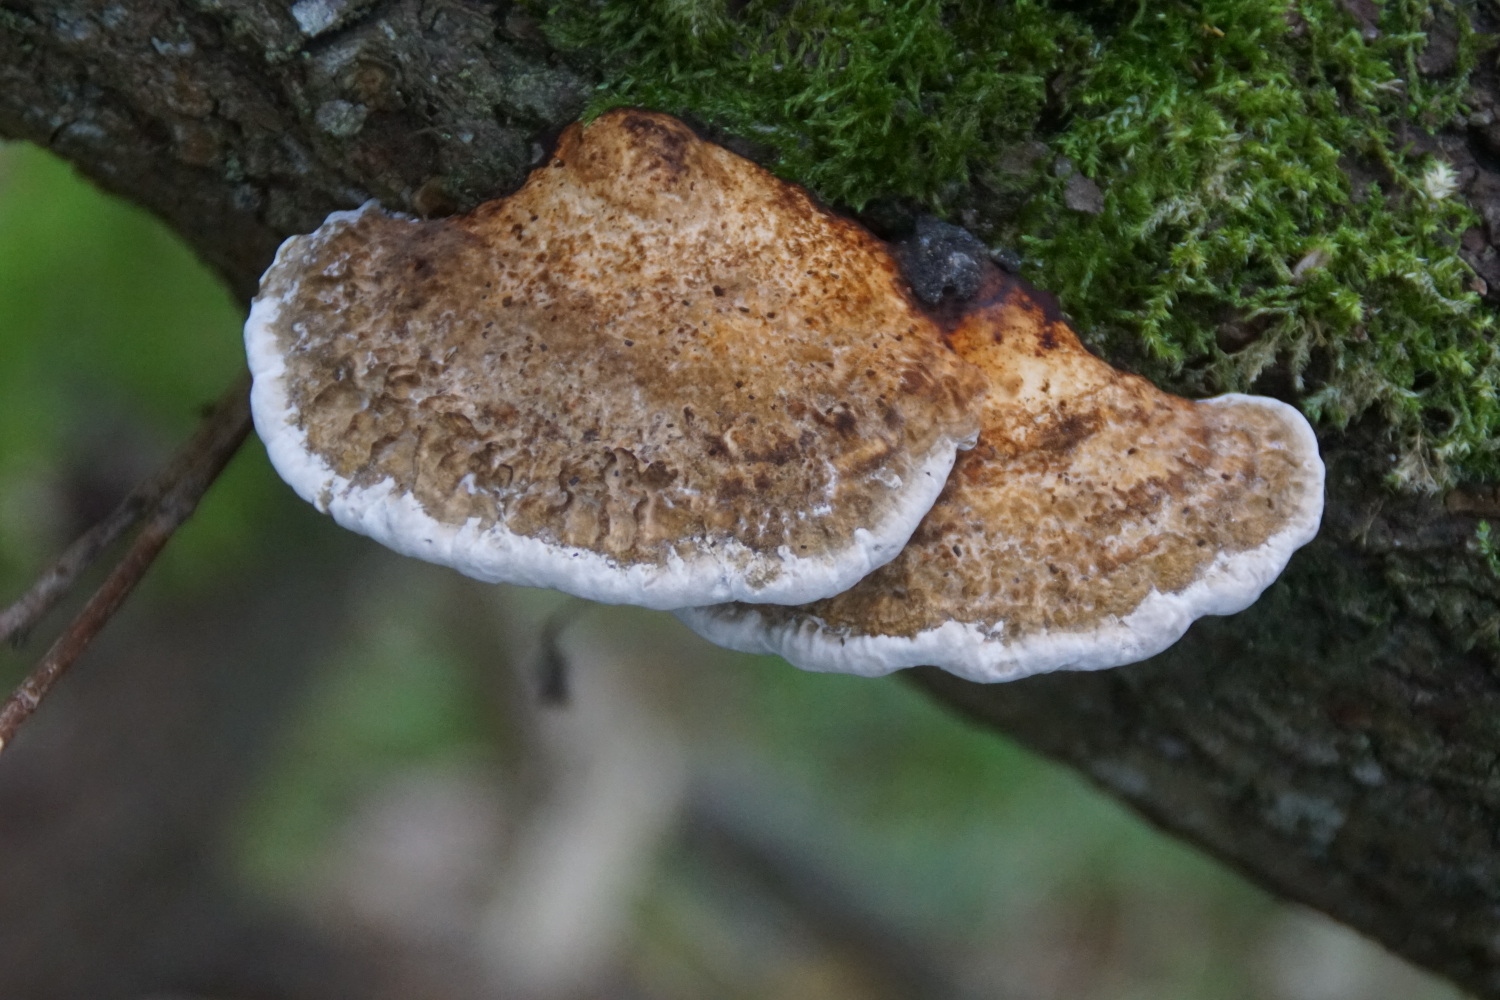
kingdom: Fungi
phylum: Basidiomycota
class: Agaricomycetes
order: Polyporales
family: Polyporaceae
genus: Daedaleopsis
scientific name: Daedaleopsis confragosa
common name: rødmende læderporesvamp
